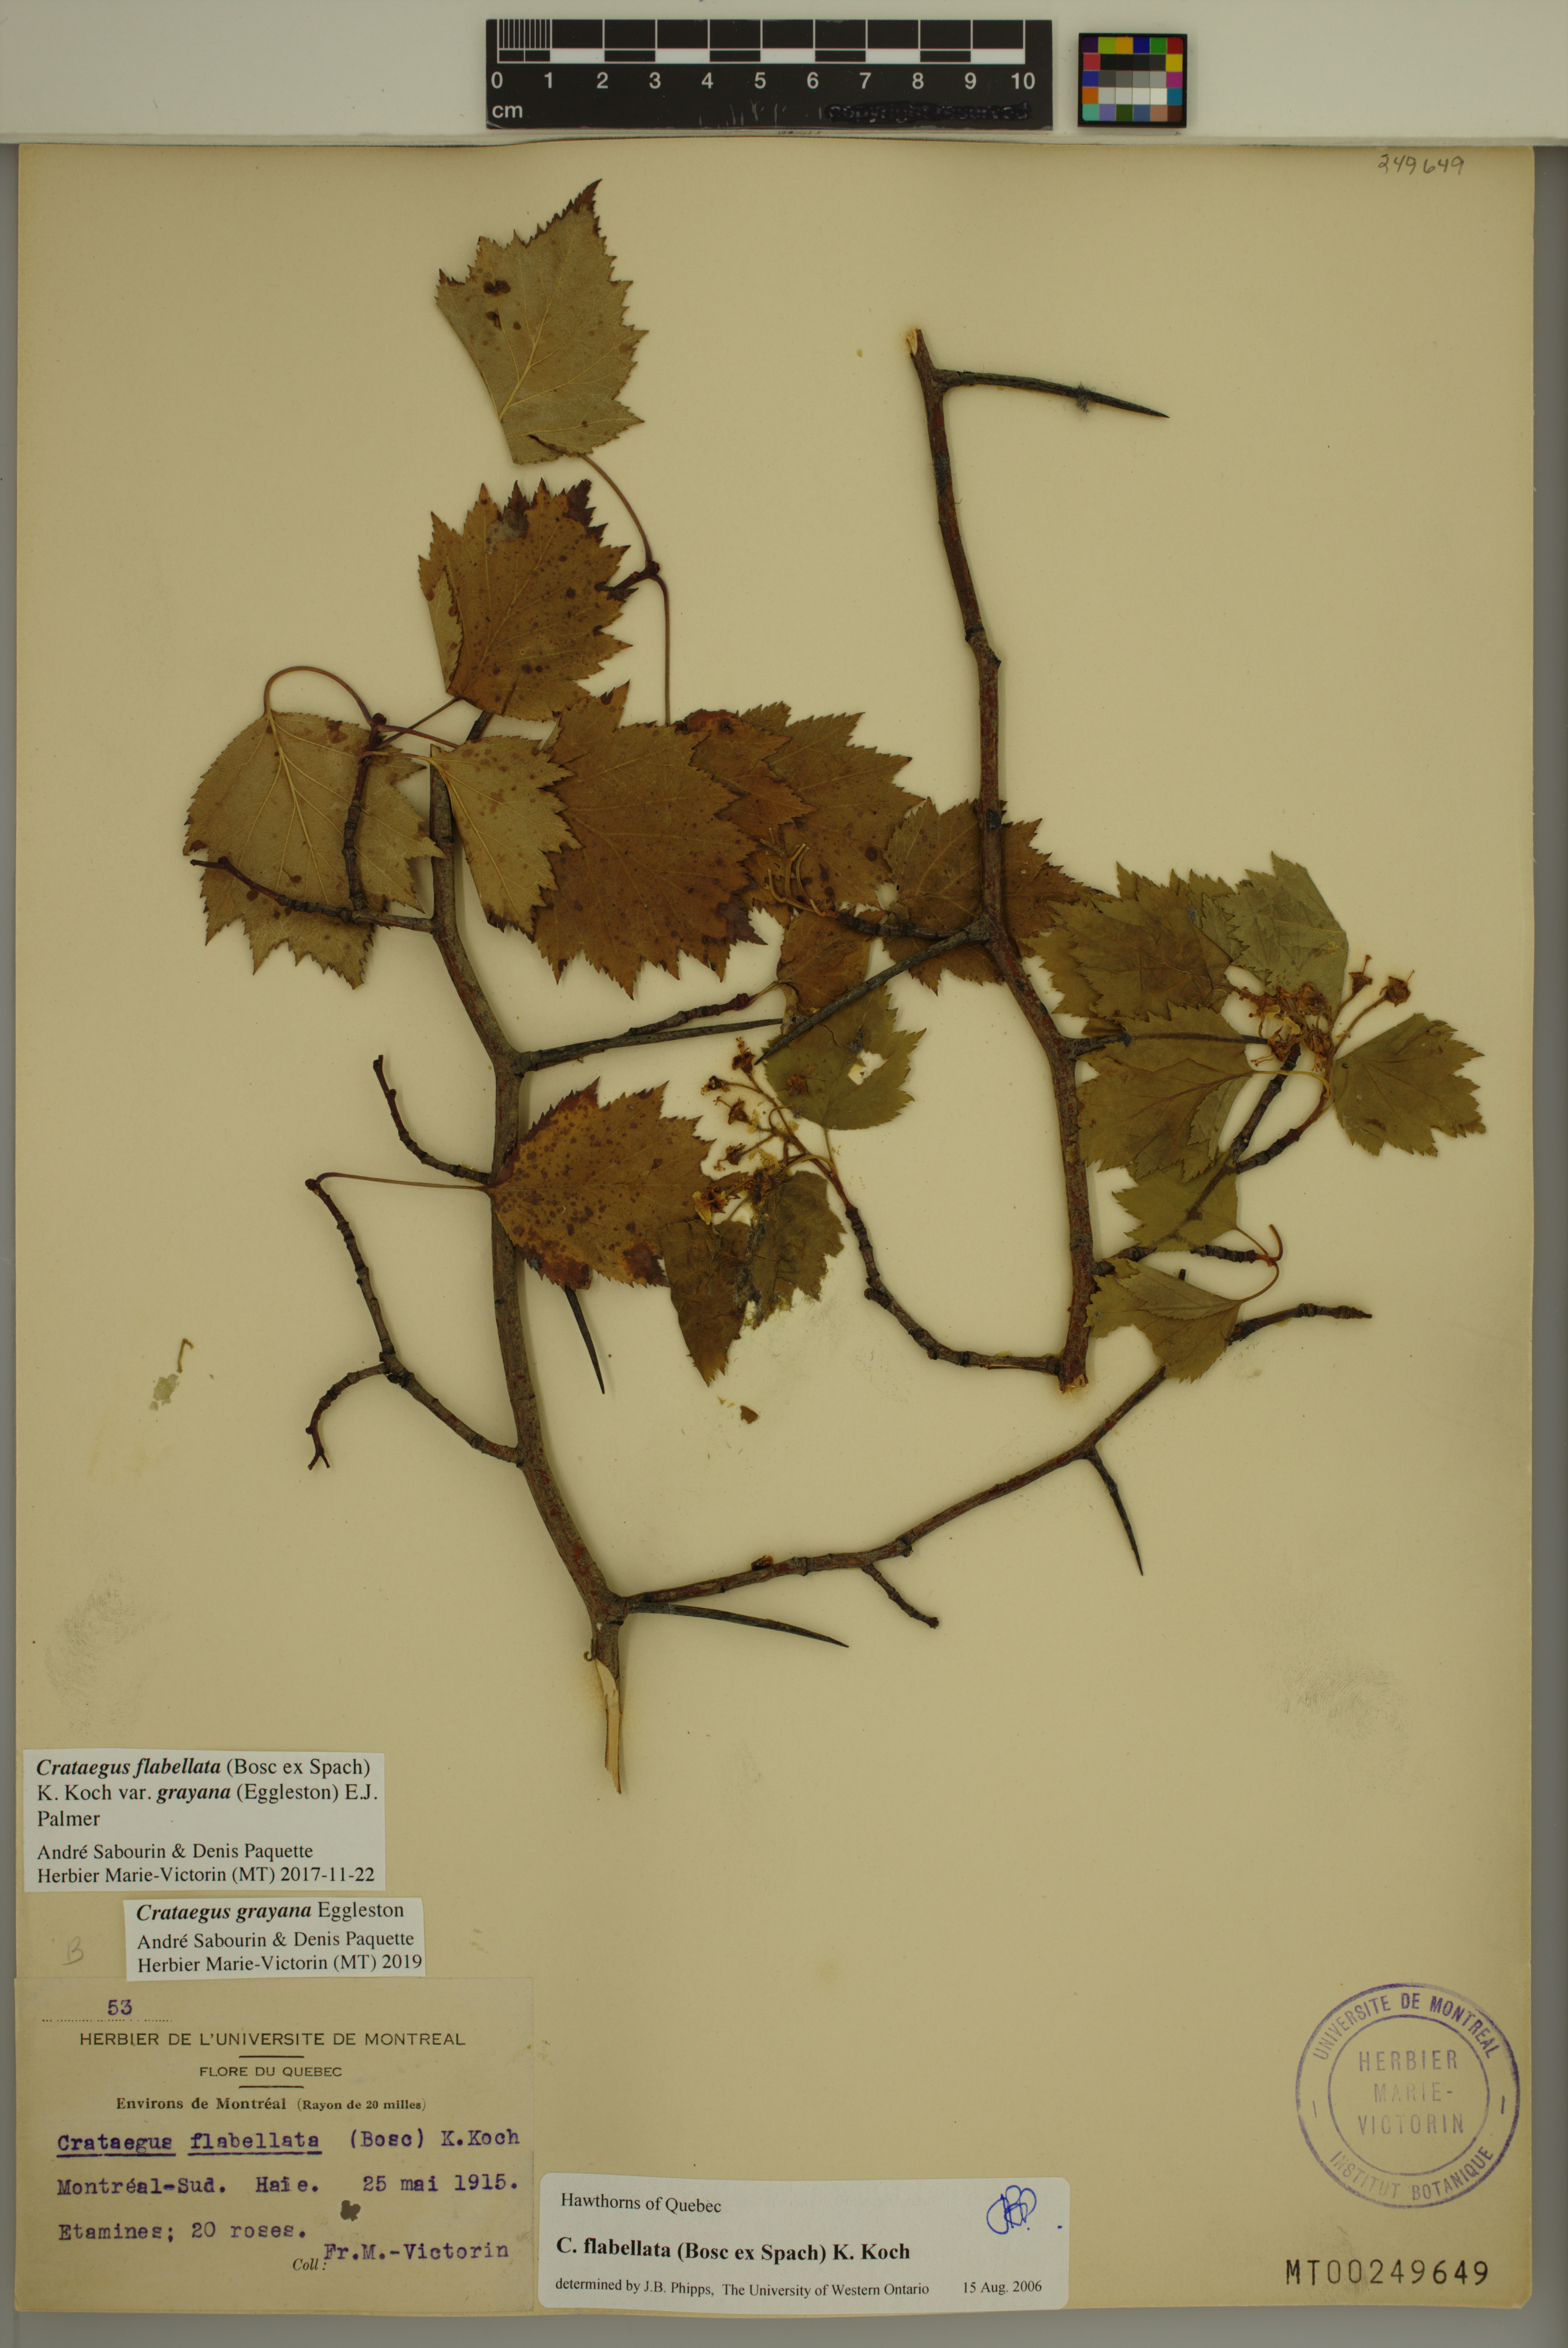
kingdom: Plantae
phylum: Tracheophyta
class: Magnoliopsida
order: Rosales
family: Rosaceae
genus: Crataegus
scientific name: Crataegus schuettei
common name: Schuette's hawthorn
